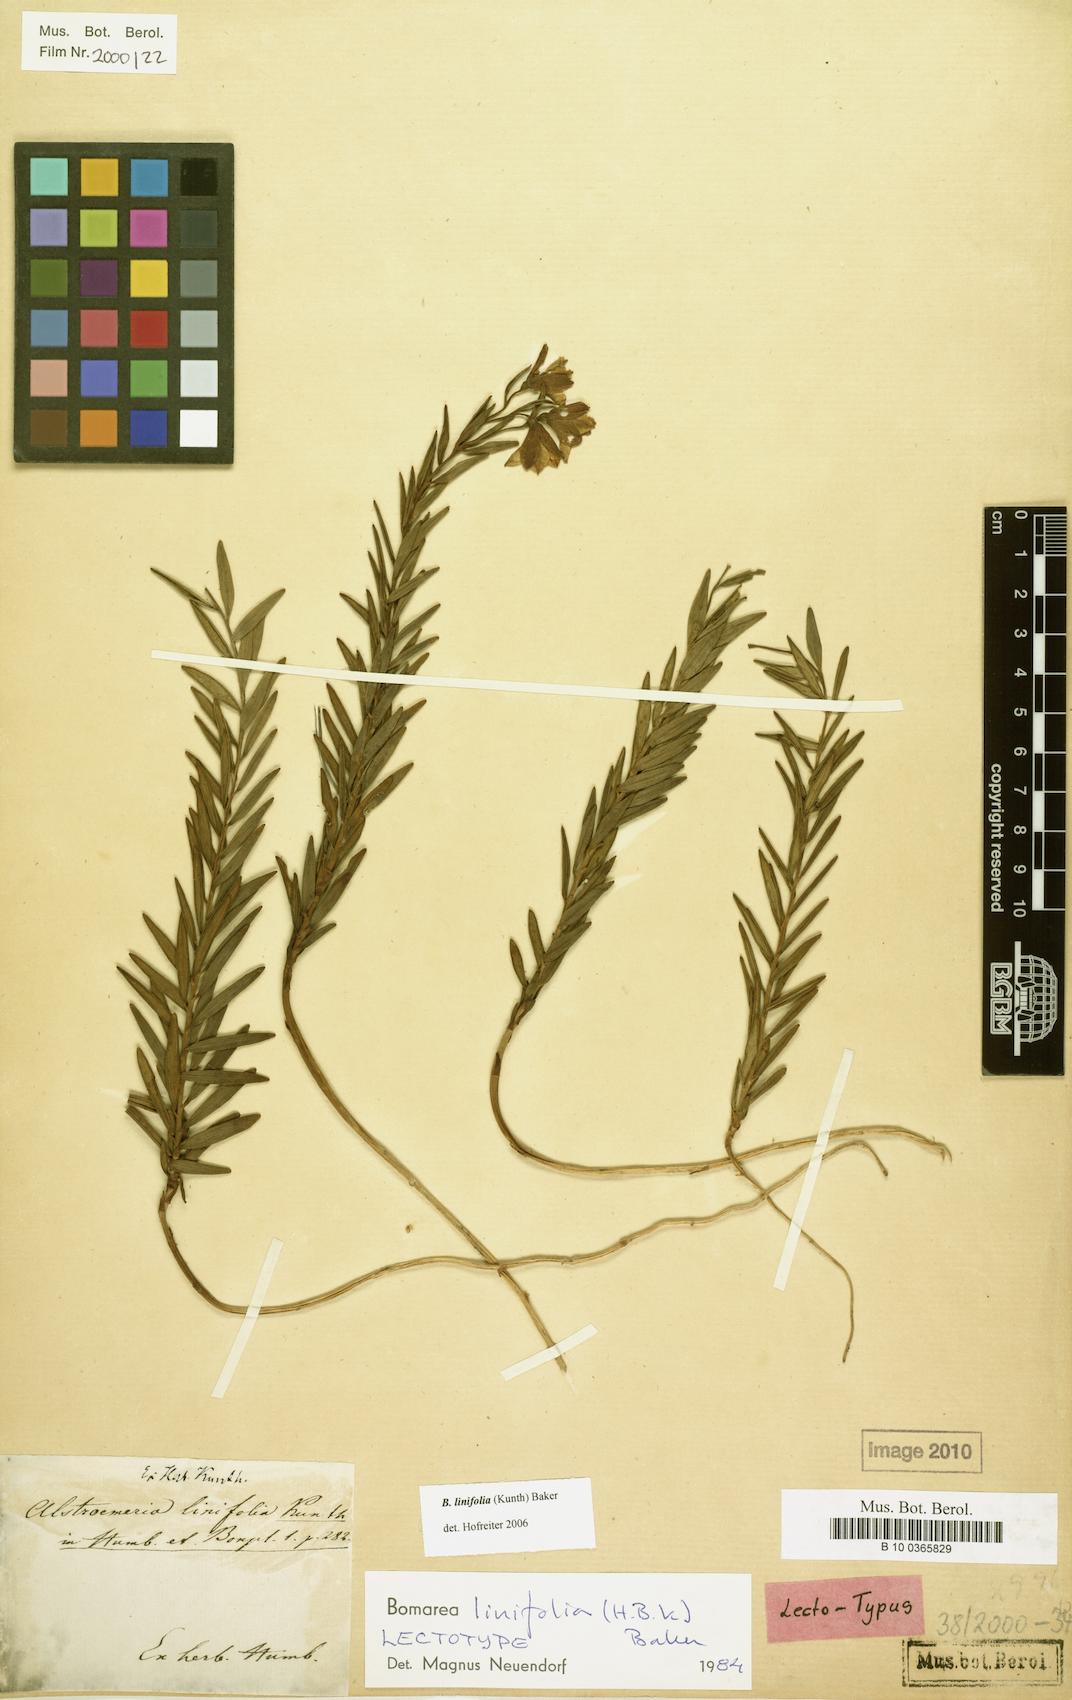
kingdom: Plantae
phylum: Tracheophyta
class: Liliopsida
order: Liliales
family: Alstroemeriaceae
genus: Bomarea
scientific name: Bomarea linifolia
